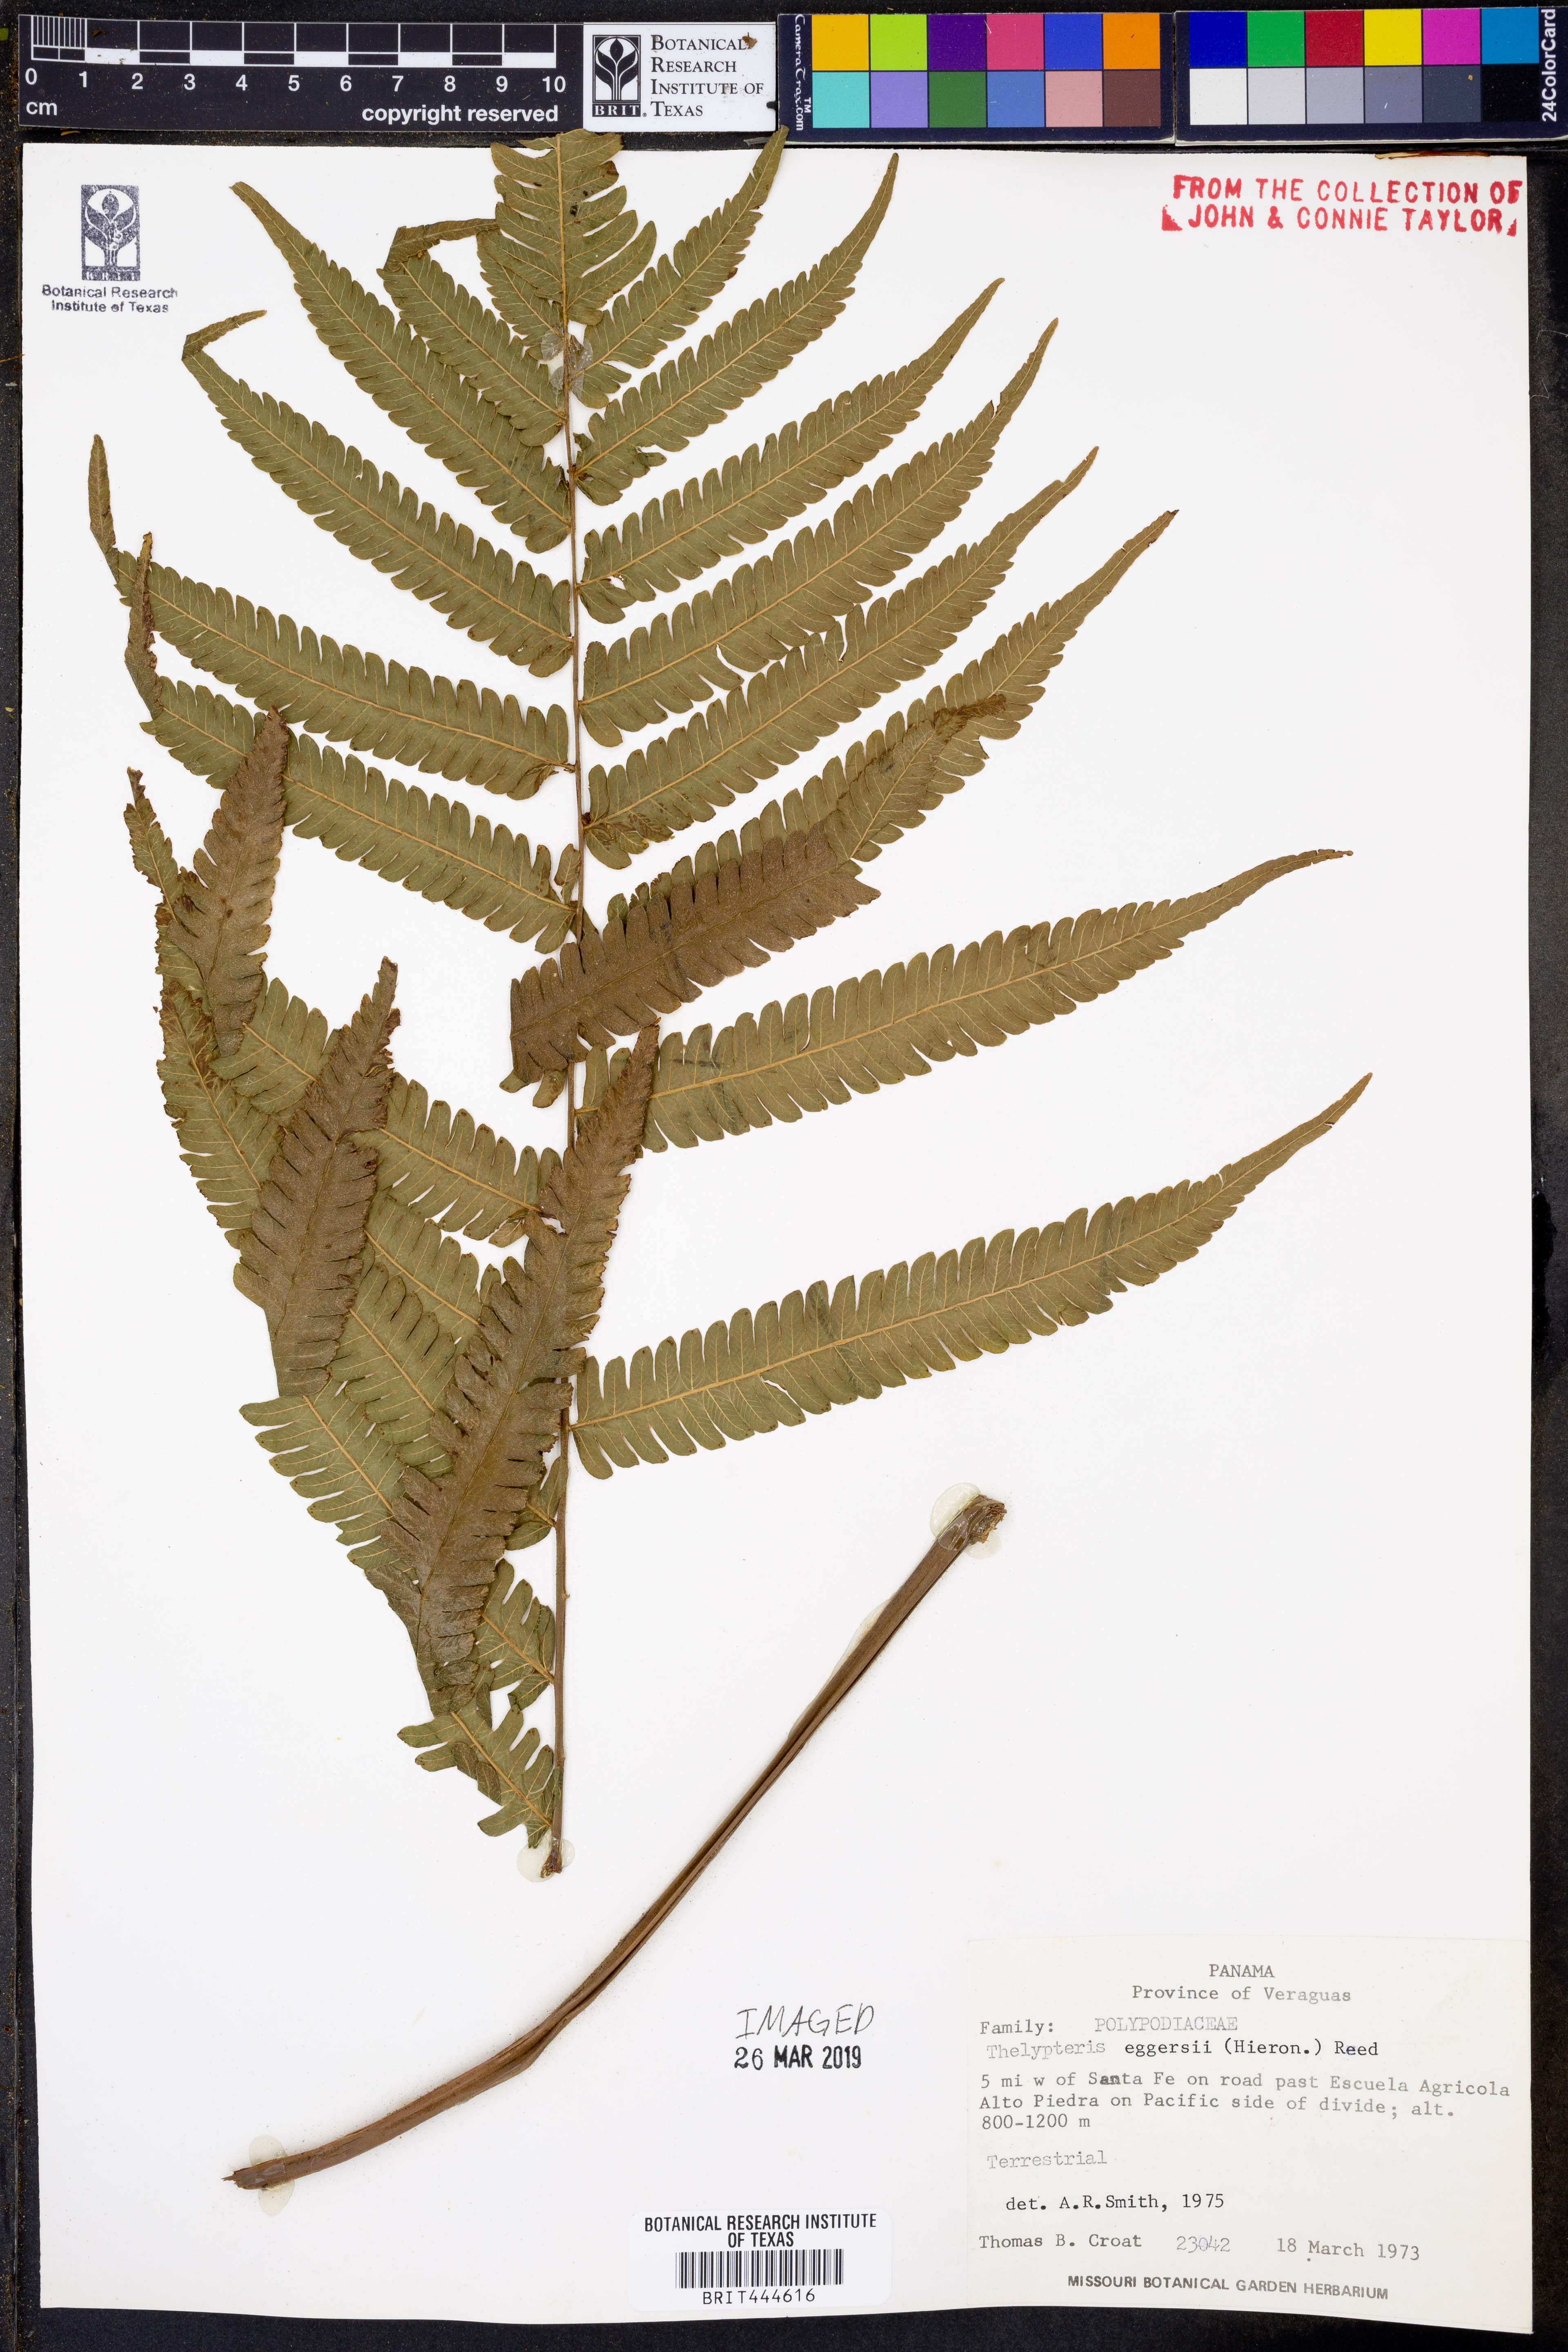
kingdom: Plantae
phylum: Tracheophyta
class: Polypodiopsida
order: Polypodiales
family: Thelypteridaceae
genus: Goniopteris
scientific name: Goniopteris eggersii
